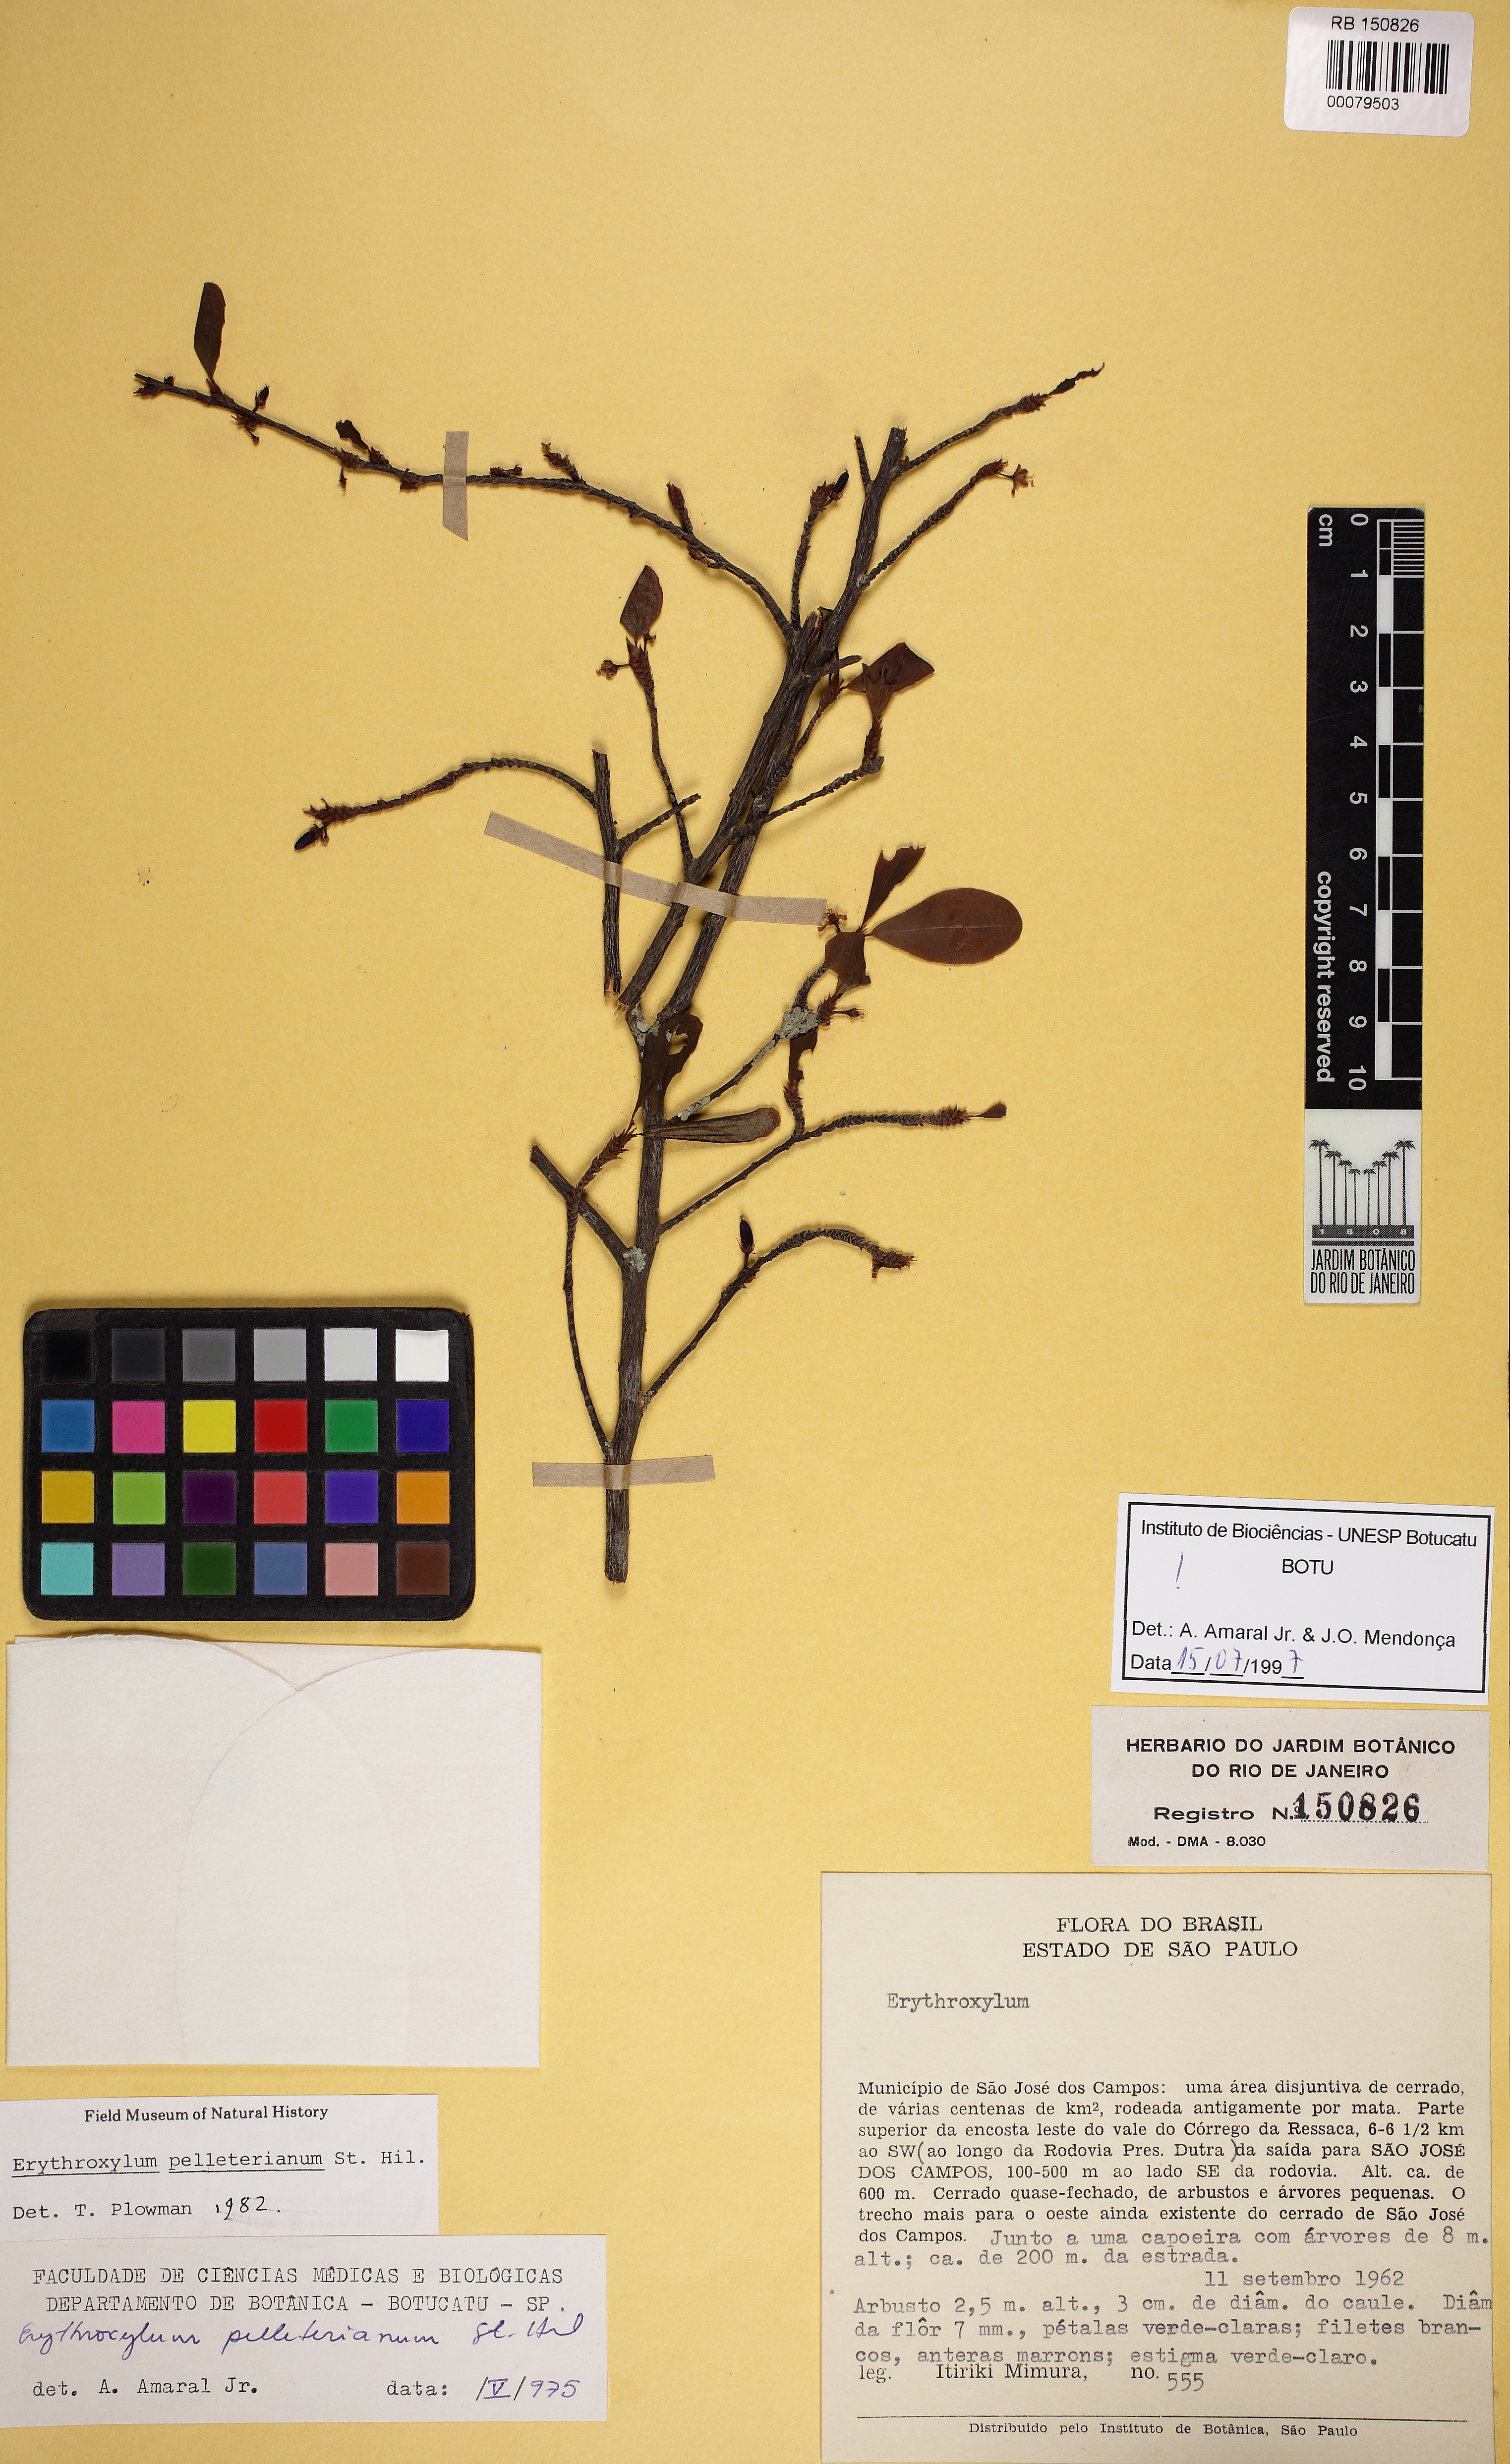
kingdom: Plantae
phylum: Tracheophyta
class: Magnoliopsida
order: Malpighiales
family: Erythroxylaceae
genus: Erythroxylum
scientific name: Erythroxylum pelleterianum
